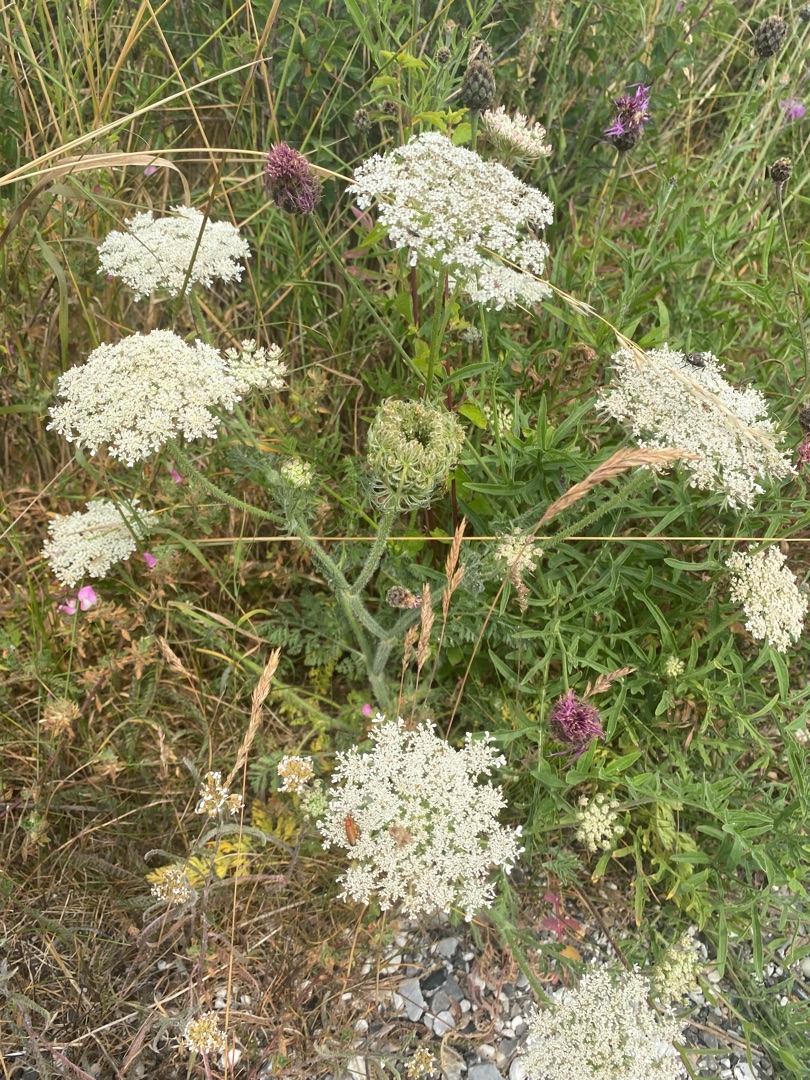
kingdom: Plantae
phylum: Tracheophyta
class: Magnoliopsida
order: Apiales
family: Apiaceae
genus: Daucus
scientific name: Daucus carota
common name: Gulerod
